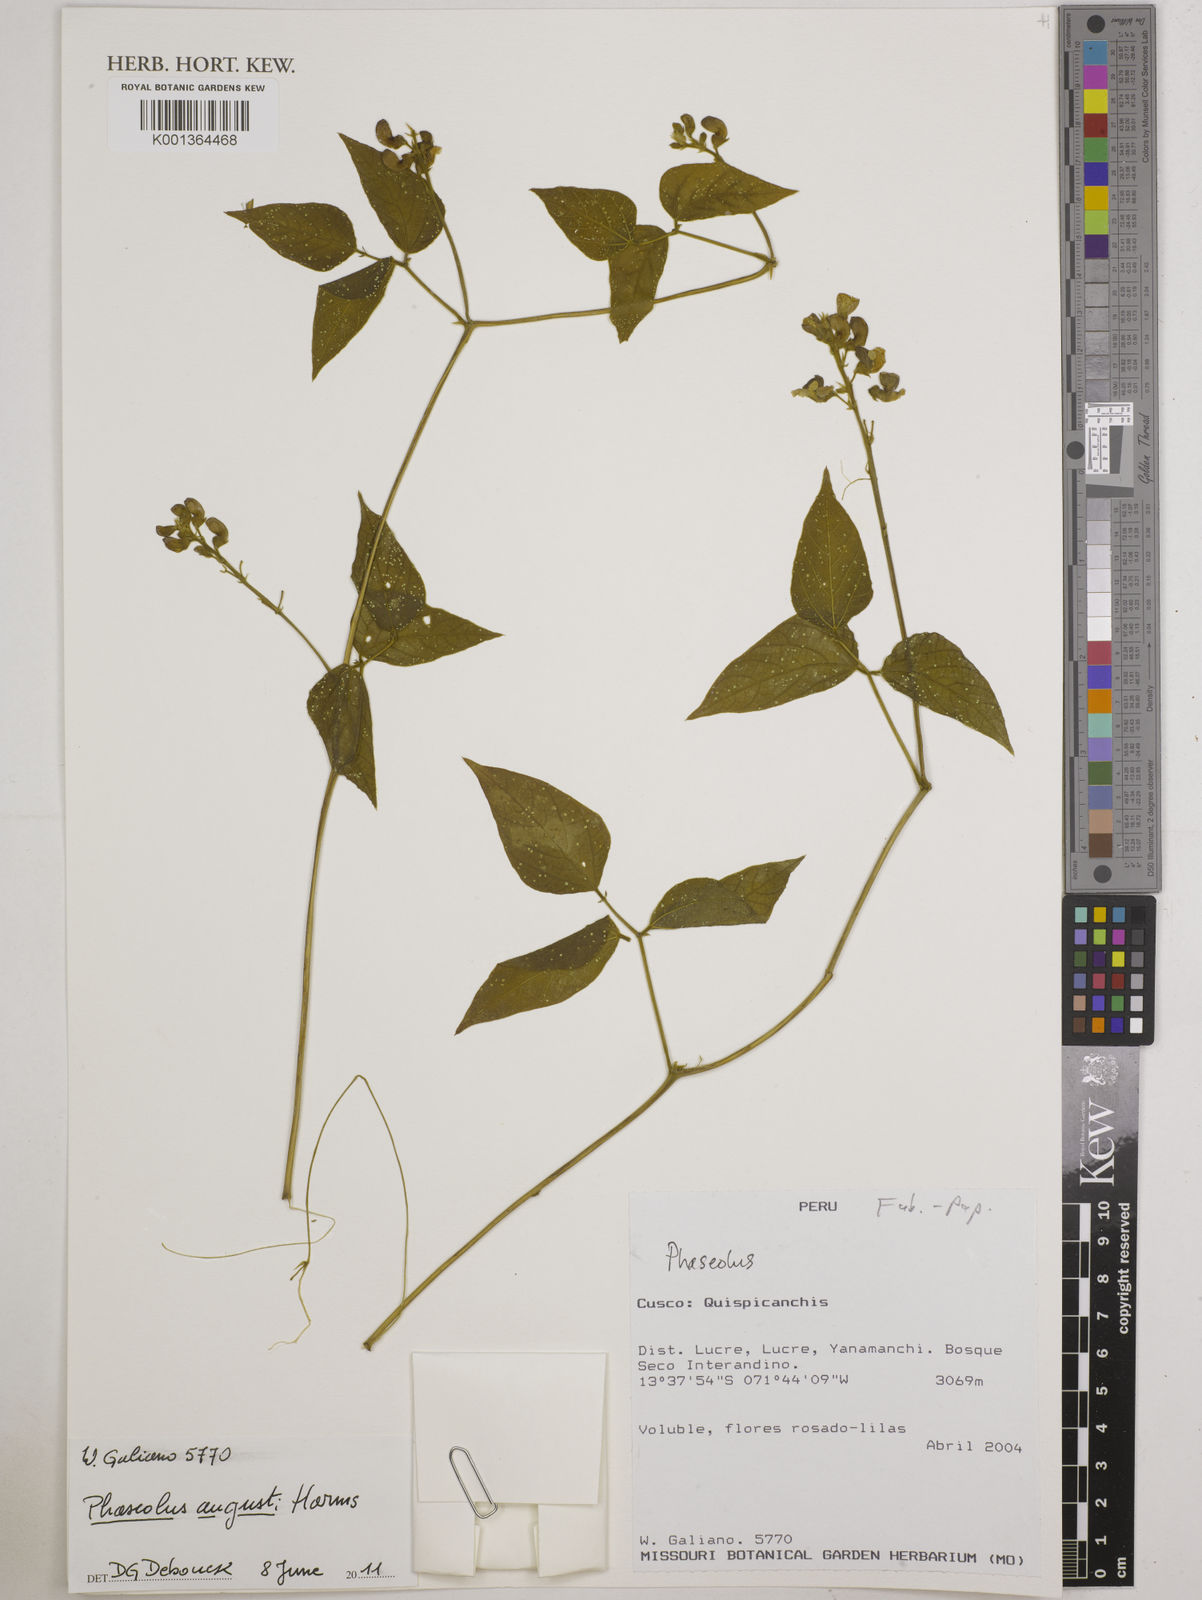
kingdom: Plantae
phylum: Tracheophyta
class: Magnoliopsida
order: Fabales
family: Fabaceae
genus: Phaseolus
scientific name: Phaseolus augusti
